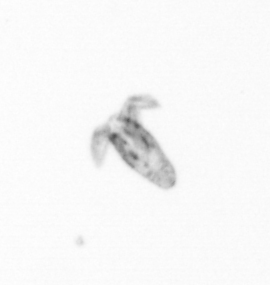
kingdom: Animalia
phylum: Arthropoda
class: Copepoda
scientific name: Copepoda
